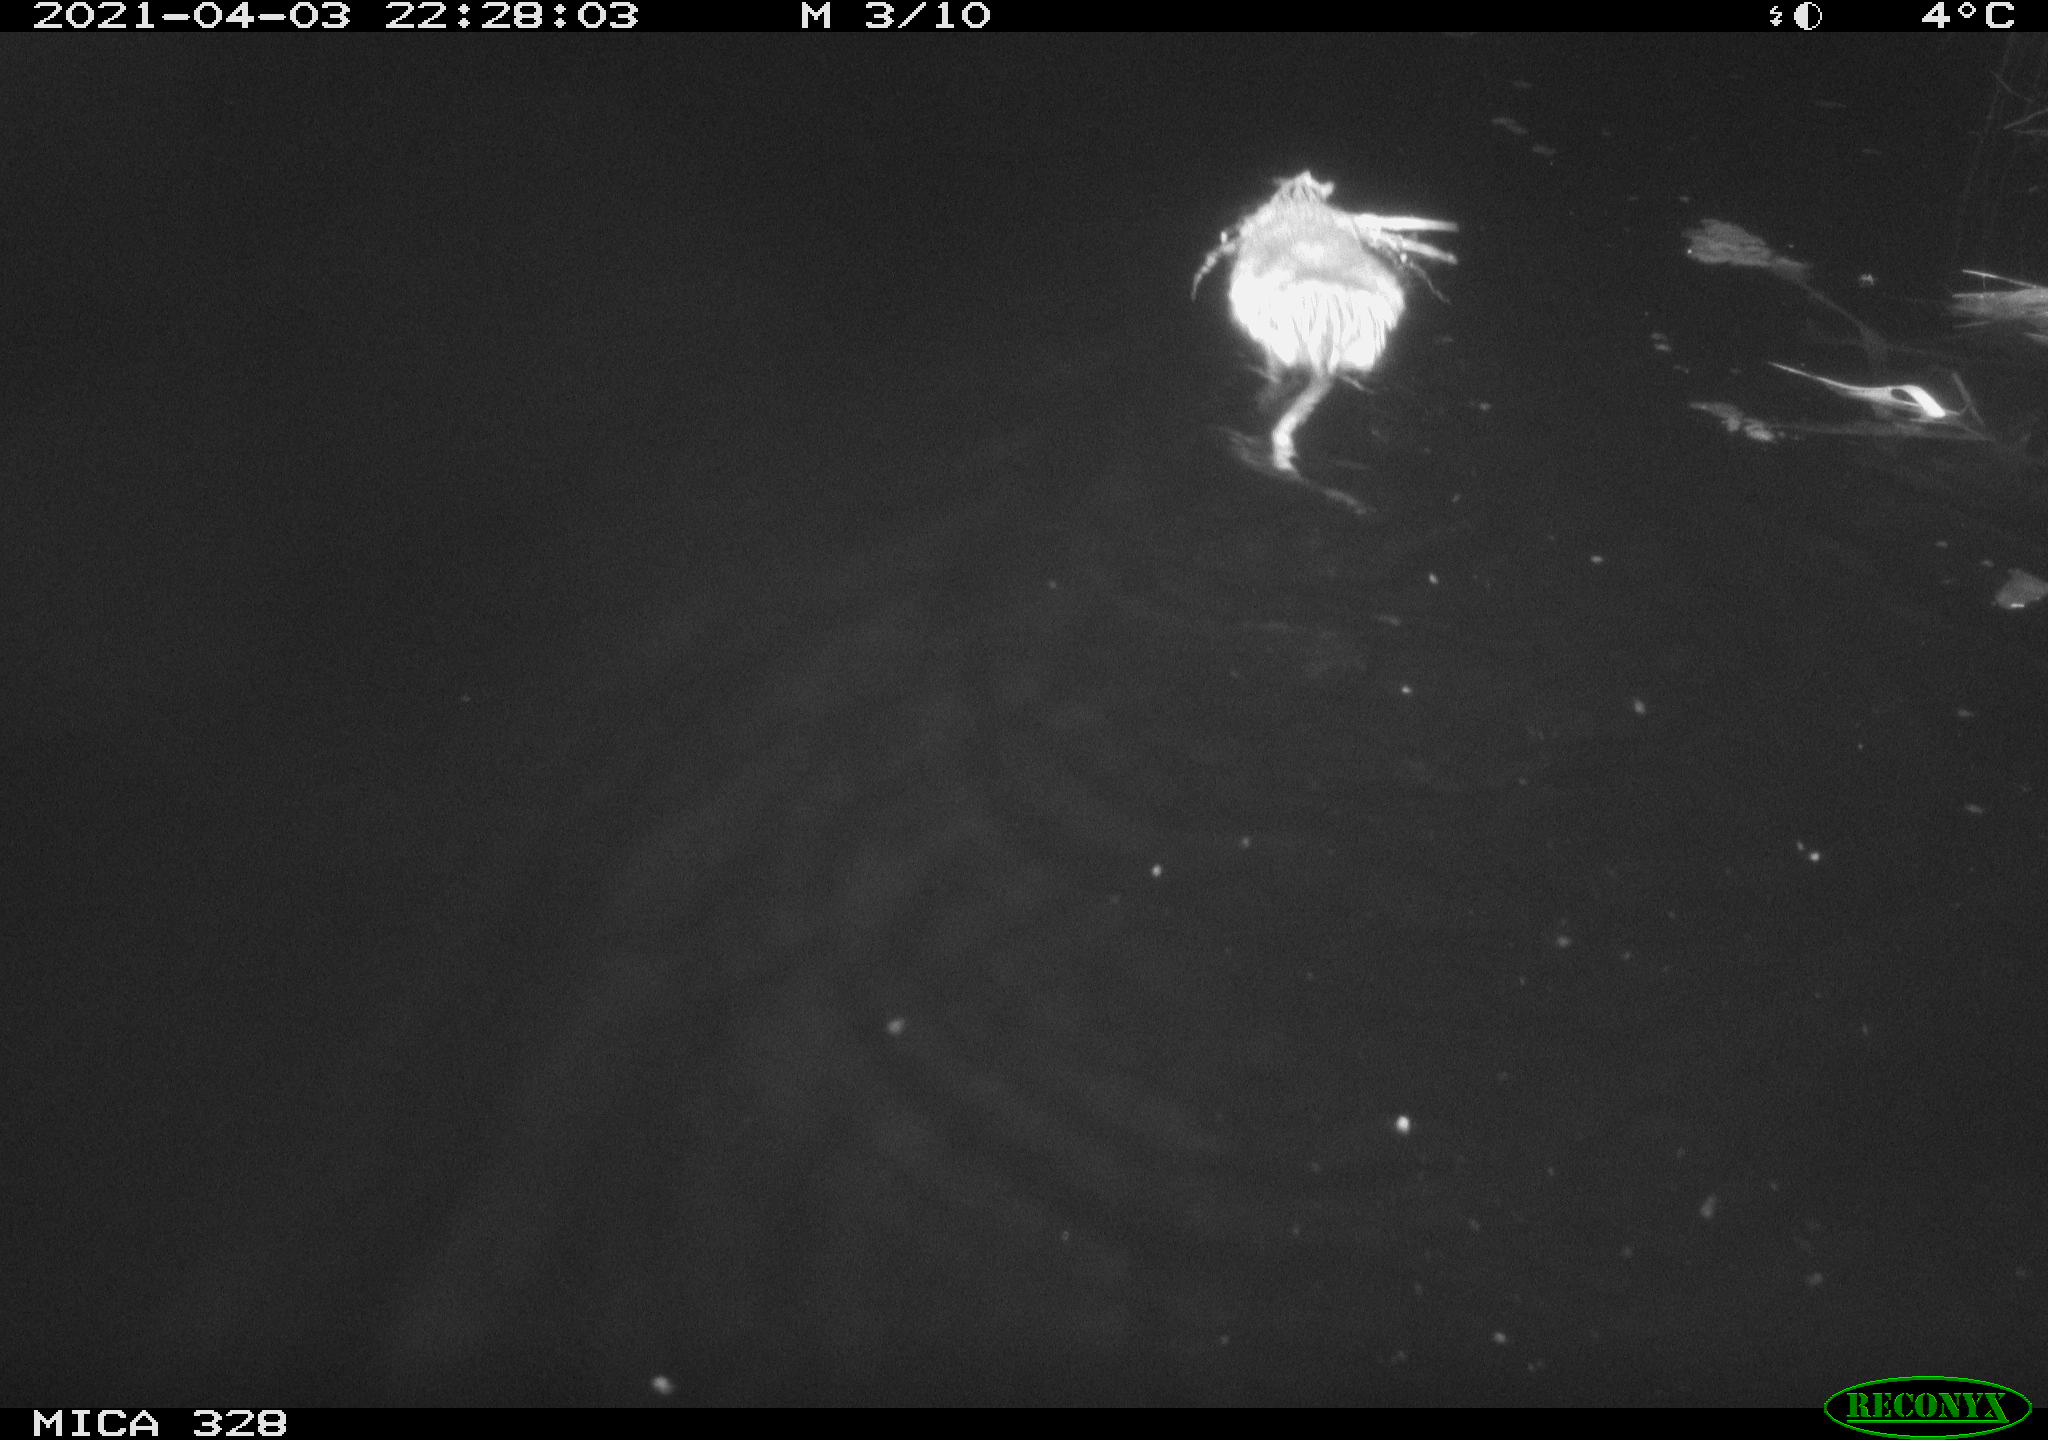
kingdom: Animalia
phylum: Chordata
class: Mammalia
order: Rodentia
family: Cricetidae
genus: Ondatra
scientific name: Ondatra zibethicus
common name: Muskrat
